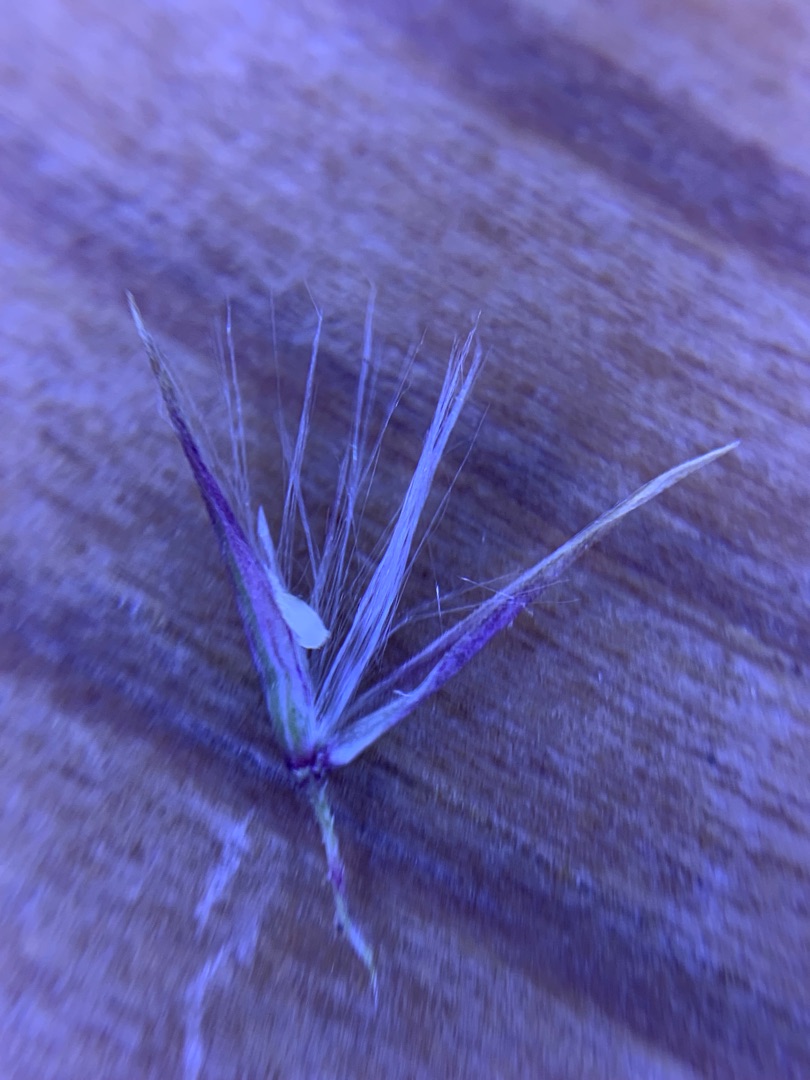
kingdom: Plantae
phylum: Tracheophyta
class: Liliopsida
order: Poales
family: Poaceae
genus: Calamagrostis
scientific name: Calamagrostis epigejos
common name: Bjerg-rørhvene
